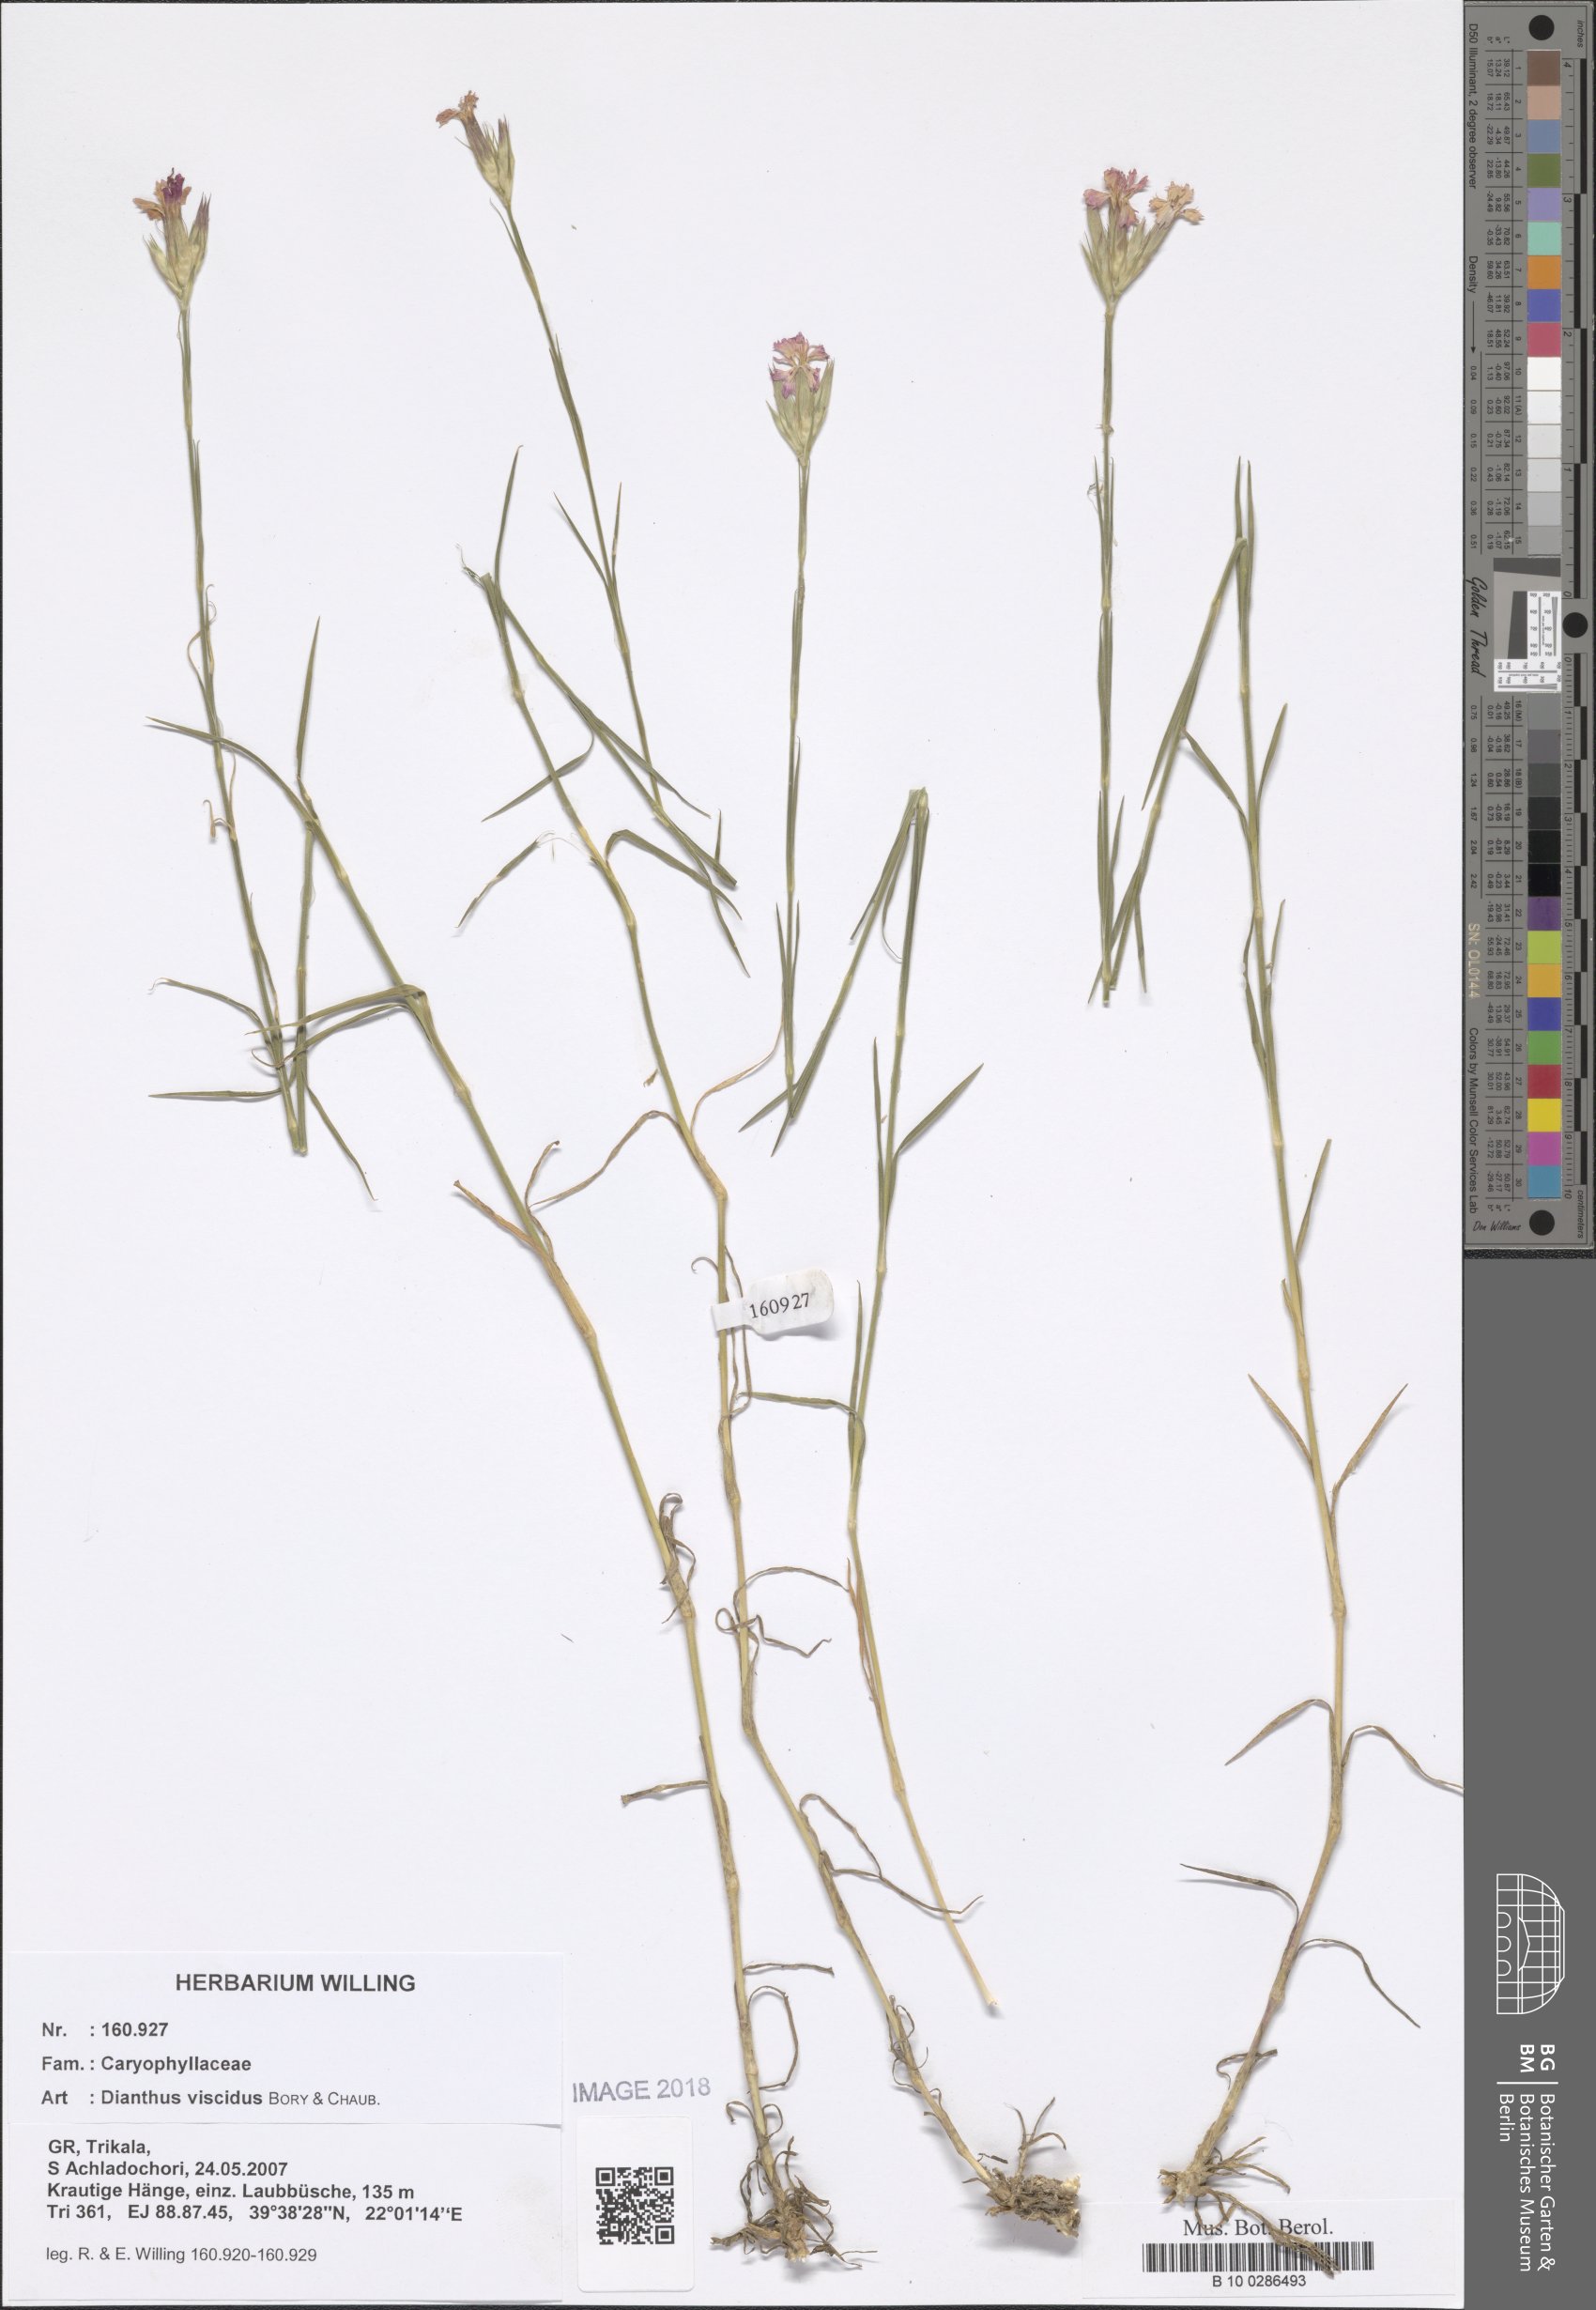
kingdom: Plantae
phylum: Tracheophyta
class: Magnoliopsida
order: Caryophyllales
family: Caryophyllaceae
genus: Dianthus
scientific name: Dianthus viscidus
